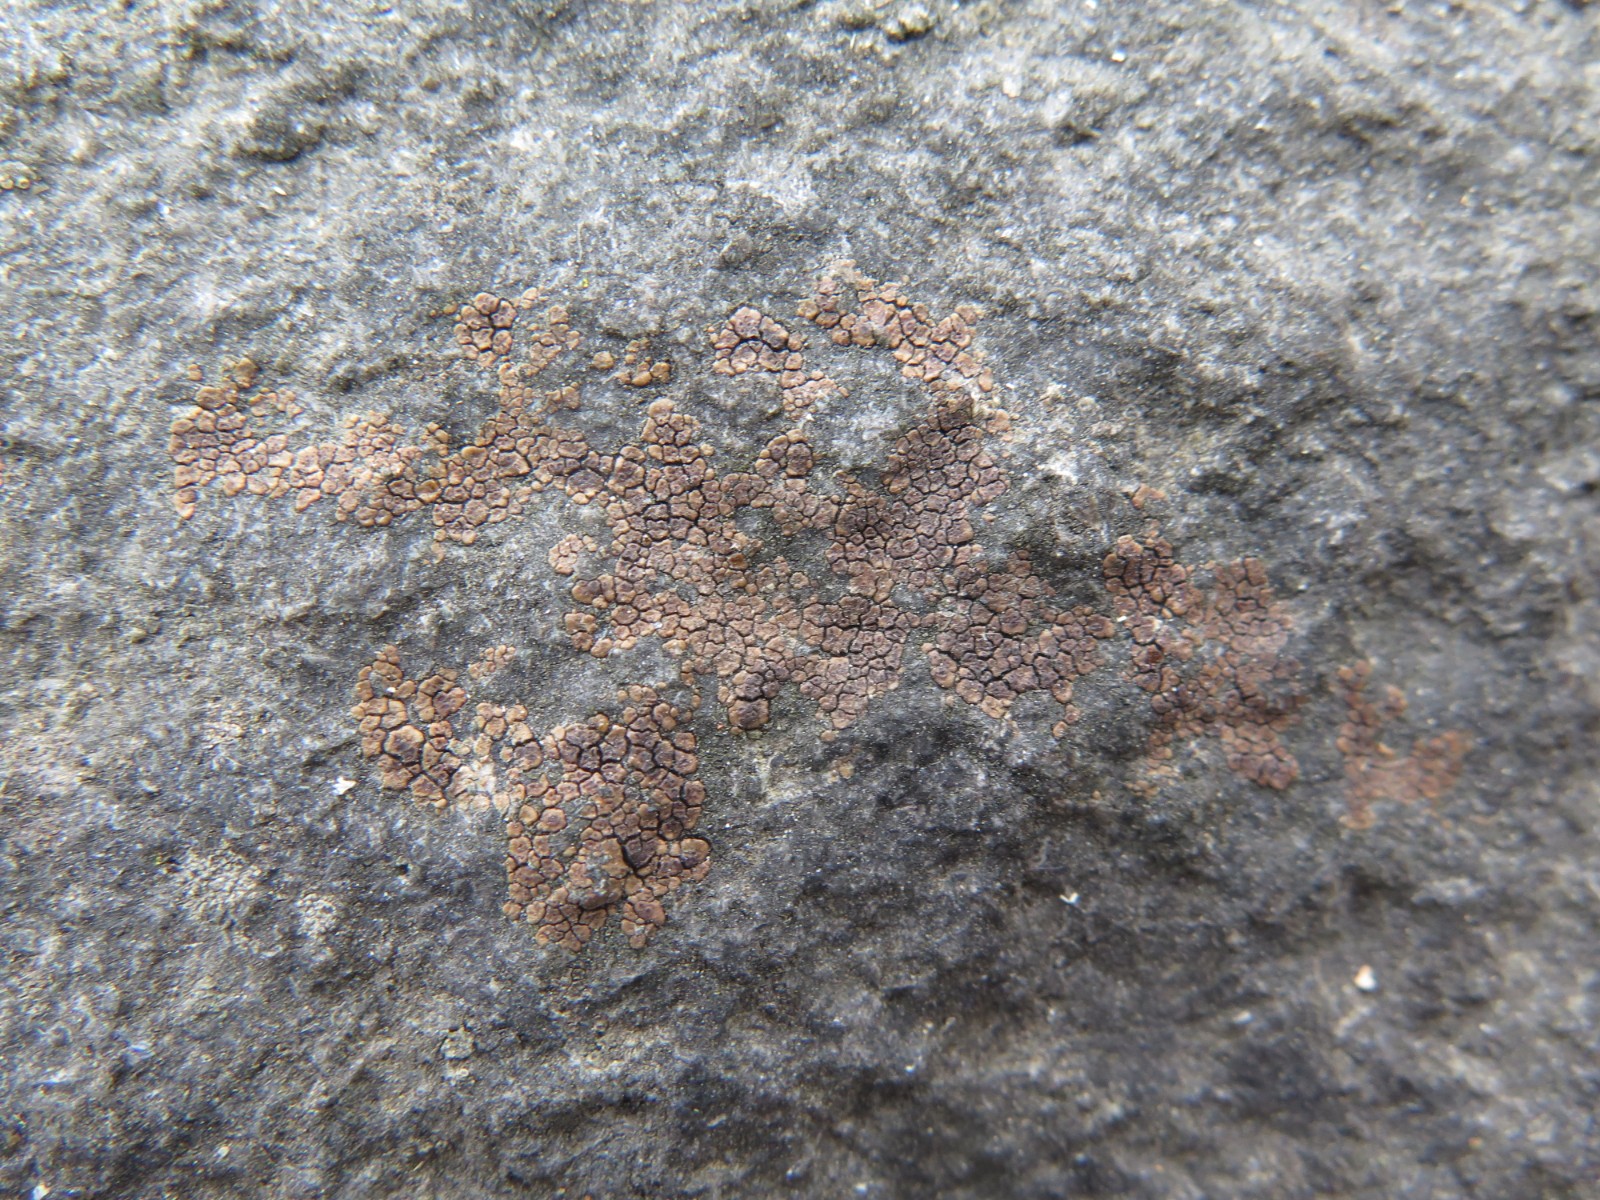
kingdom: Fungi
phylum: Ascomycota
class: Lecanoromycetes
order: Acarosporales
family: Acarosporaceae
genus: Acarospora
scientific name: Acarospora fuscata
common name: brun småsporelav
